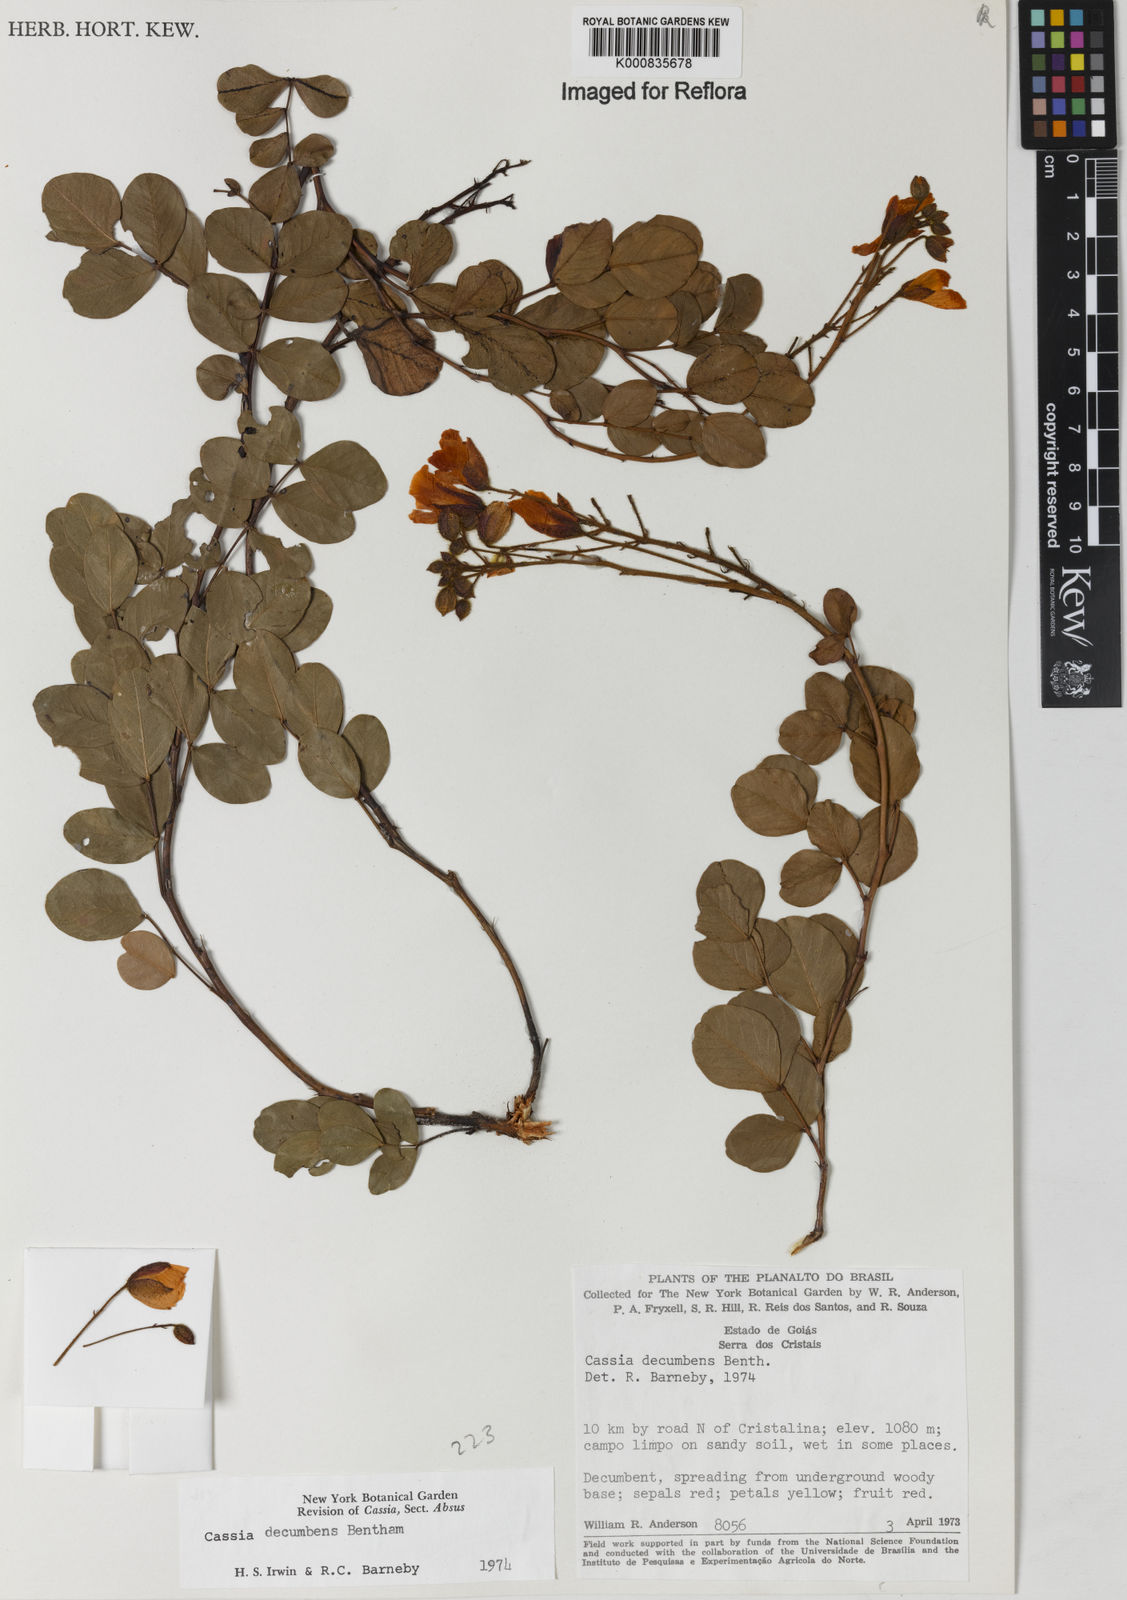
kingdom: Plantae
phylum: Tracheophyta
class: Magnoliopsida
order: Fabales
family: Fabaceae
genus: Chamaecrista
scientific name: Chamaecrista decumbens
